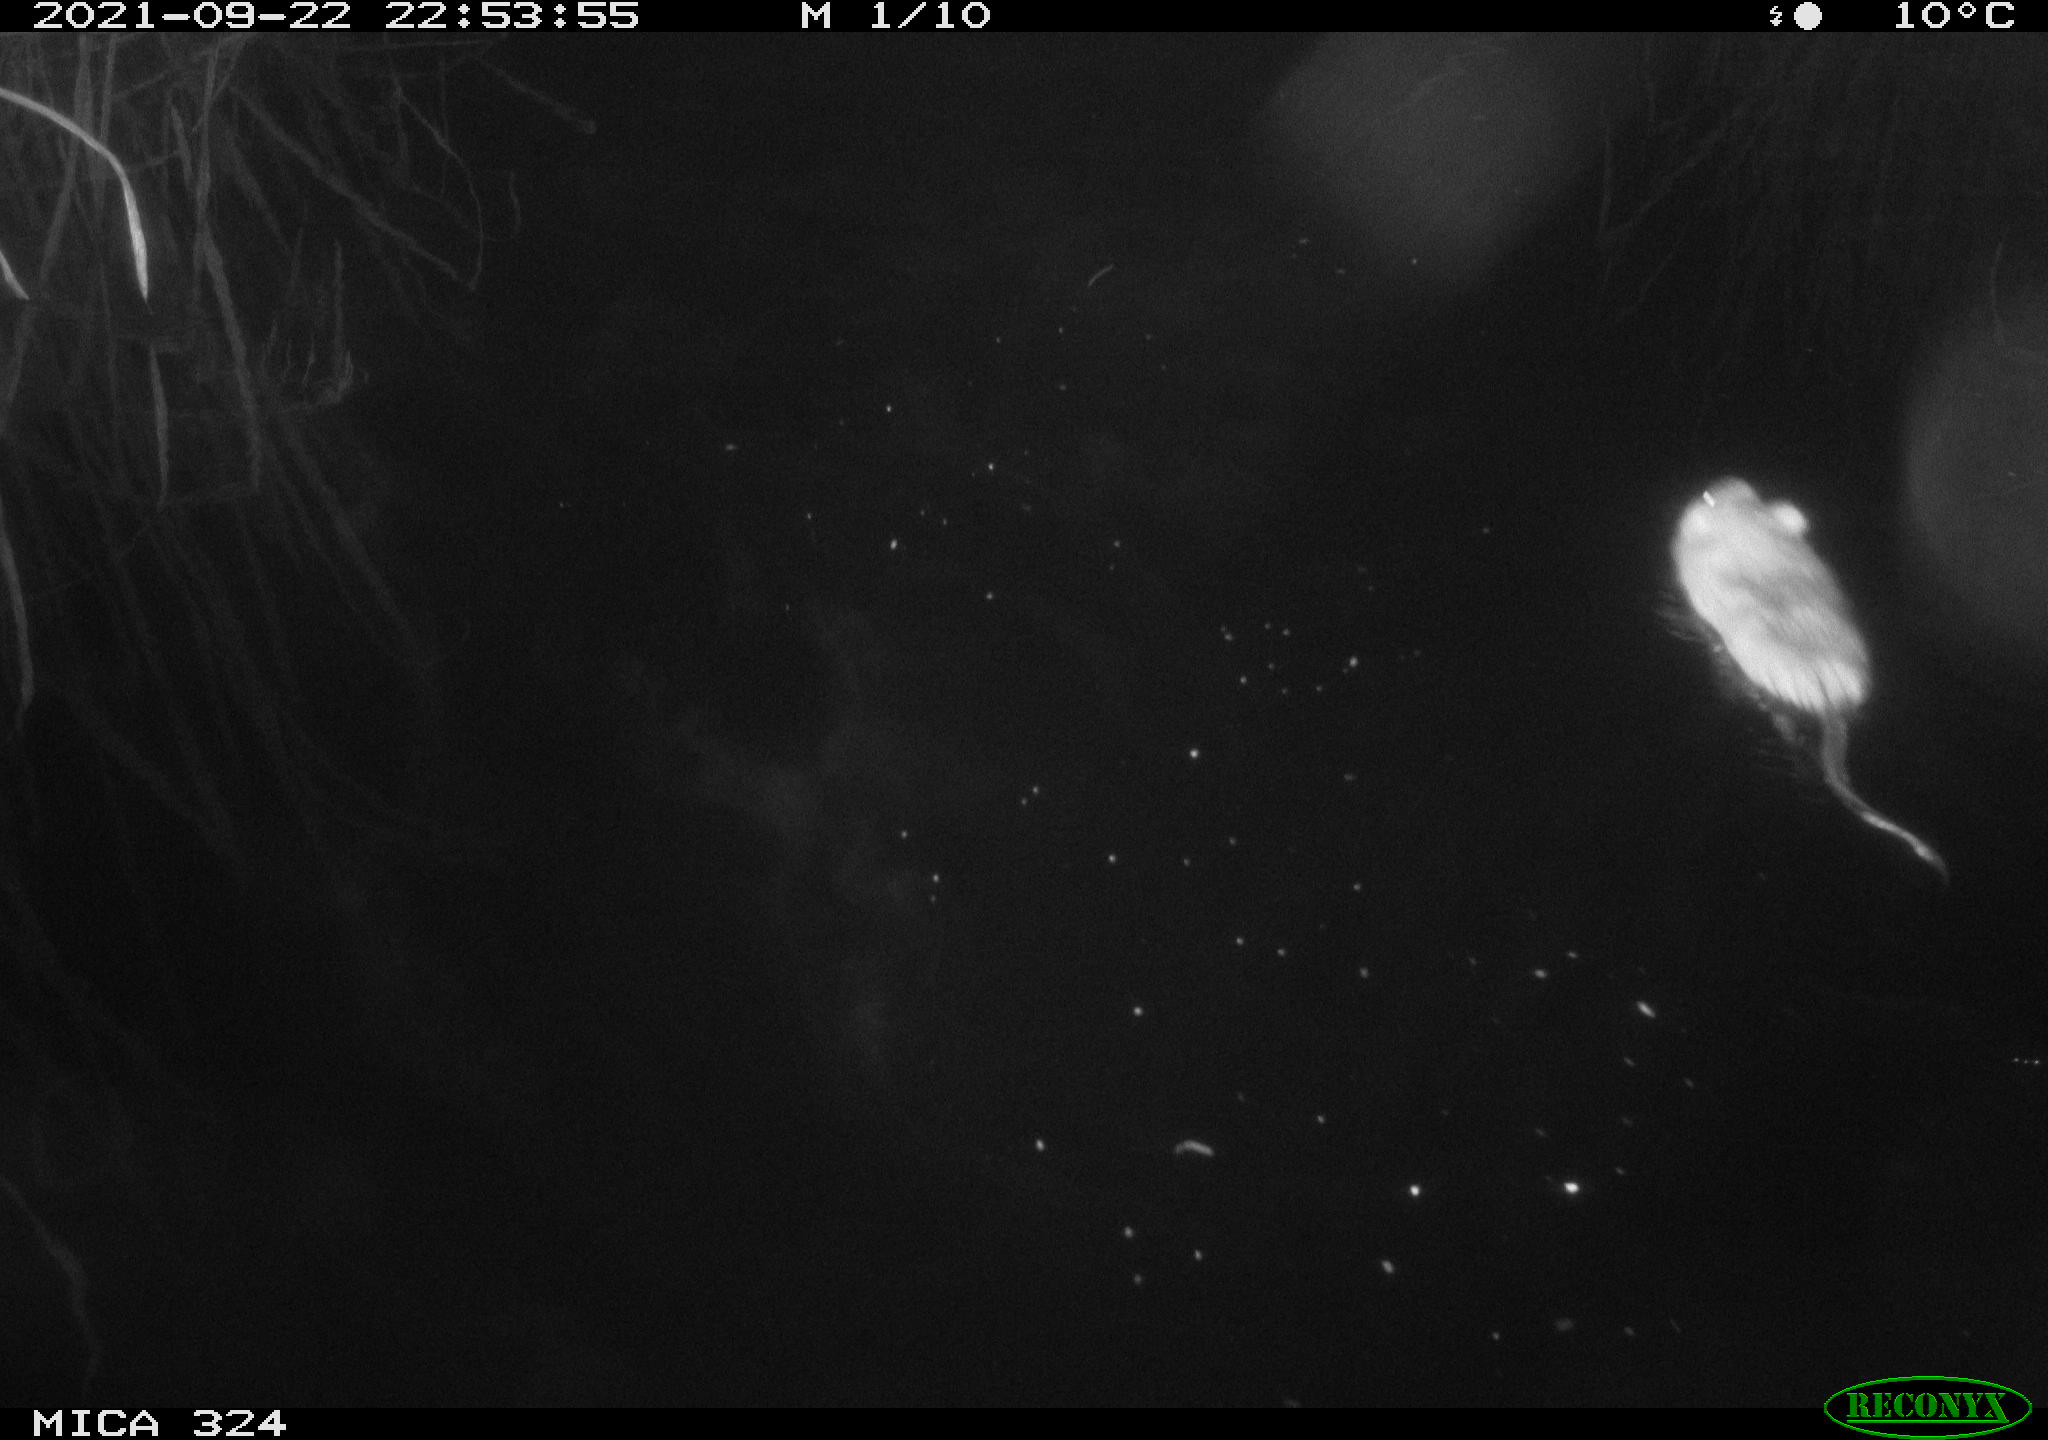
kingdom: Animalia
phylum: Chordata
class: Mammalia
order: Rodentia
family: Cricetidae
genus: Ondatra
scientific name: Ondatra zibethicus
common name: Muskrat
